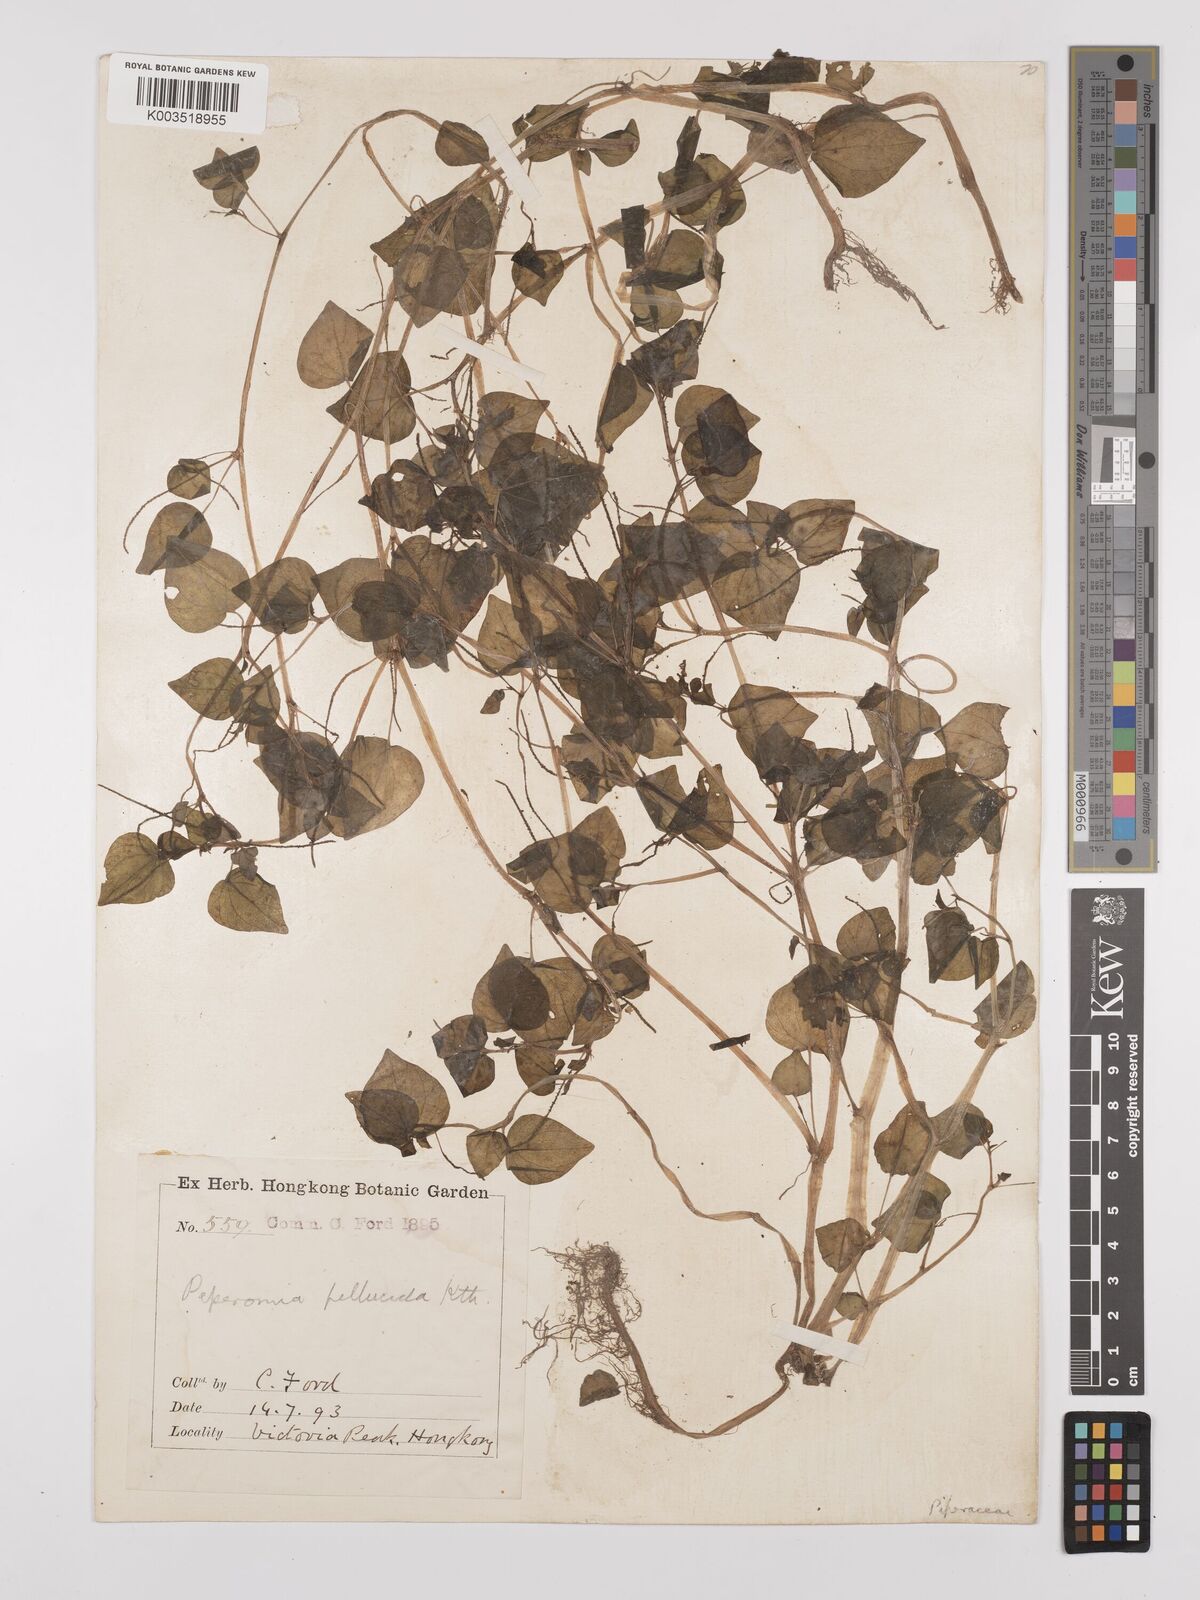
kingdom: Plantae
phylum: Tracheophyta
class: Magnoliopsida
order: Piperales
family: Piperaceae
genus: Peperomia
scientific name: Peperomia pellucida
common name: Man to man
